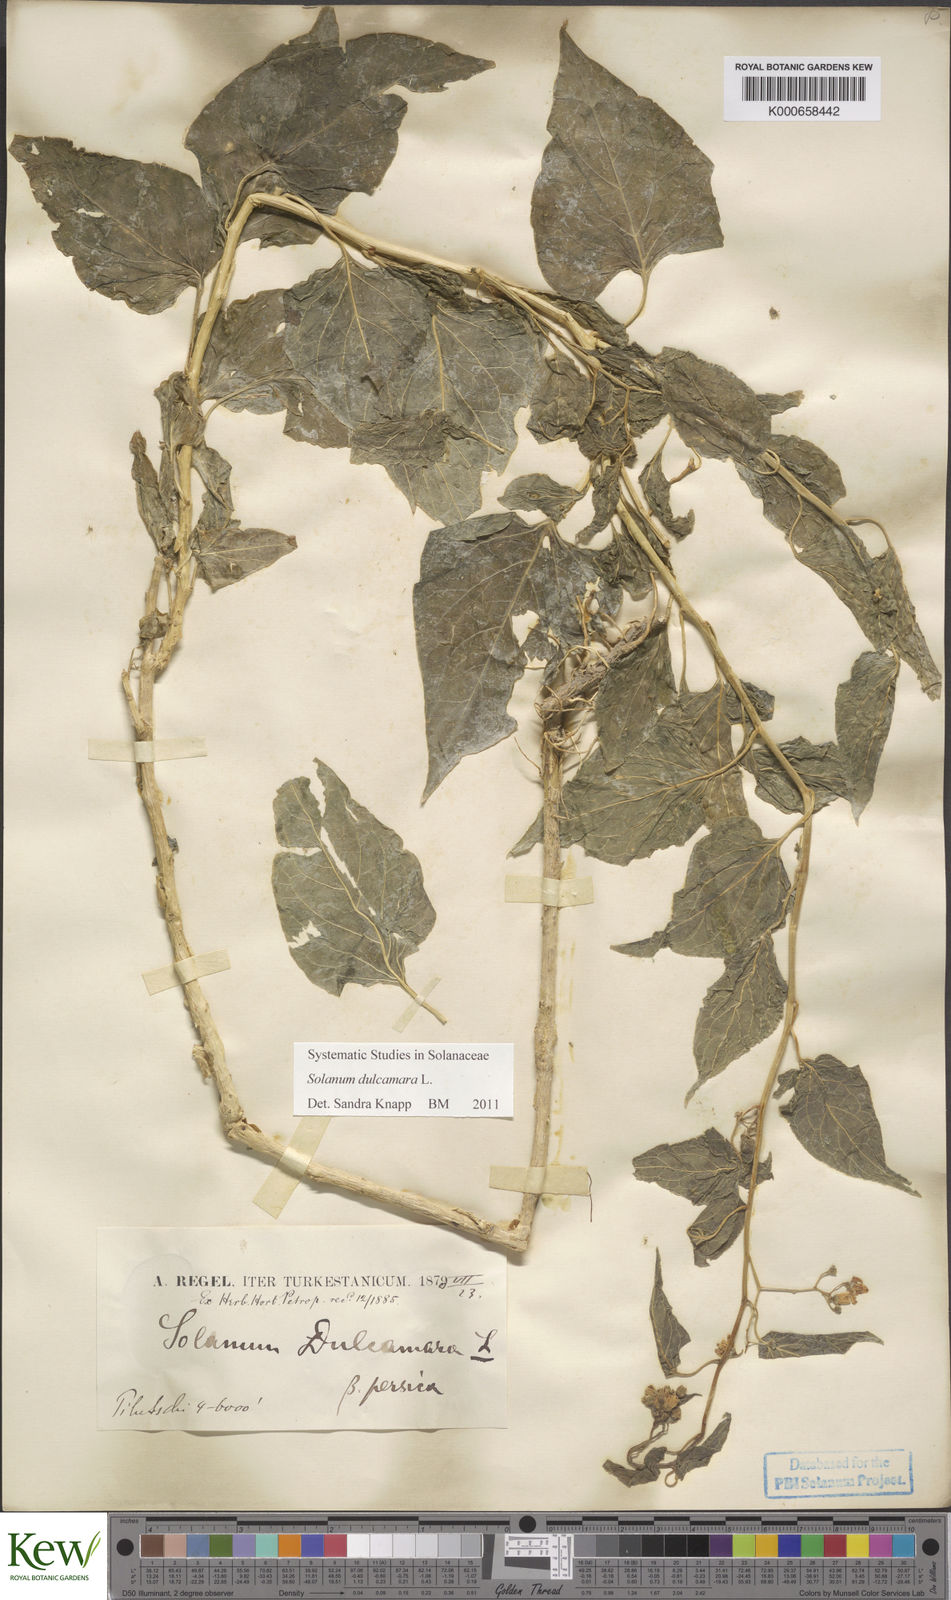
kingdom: Plantae
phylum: Tracheophyta
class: Magnoliopsida
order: Solanales
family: Solanaceae
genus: Solanum
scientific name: Solanum dulcamara
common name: Climbing nightshade
